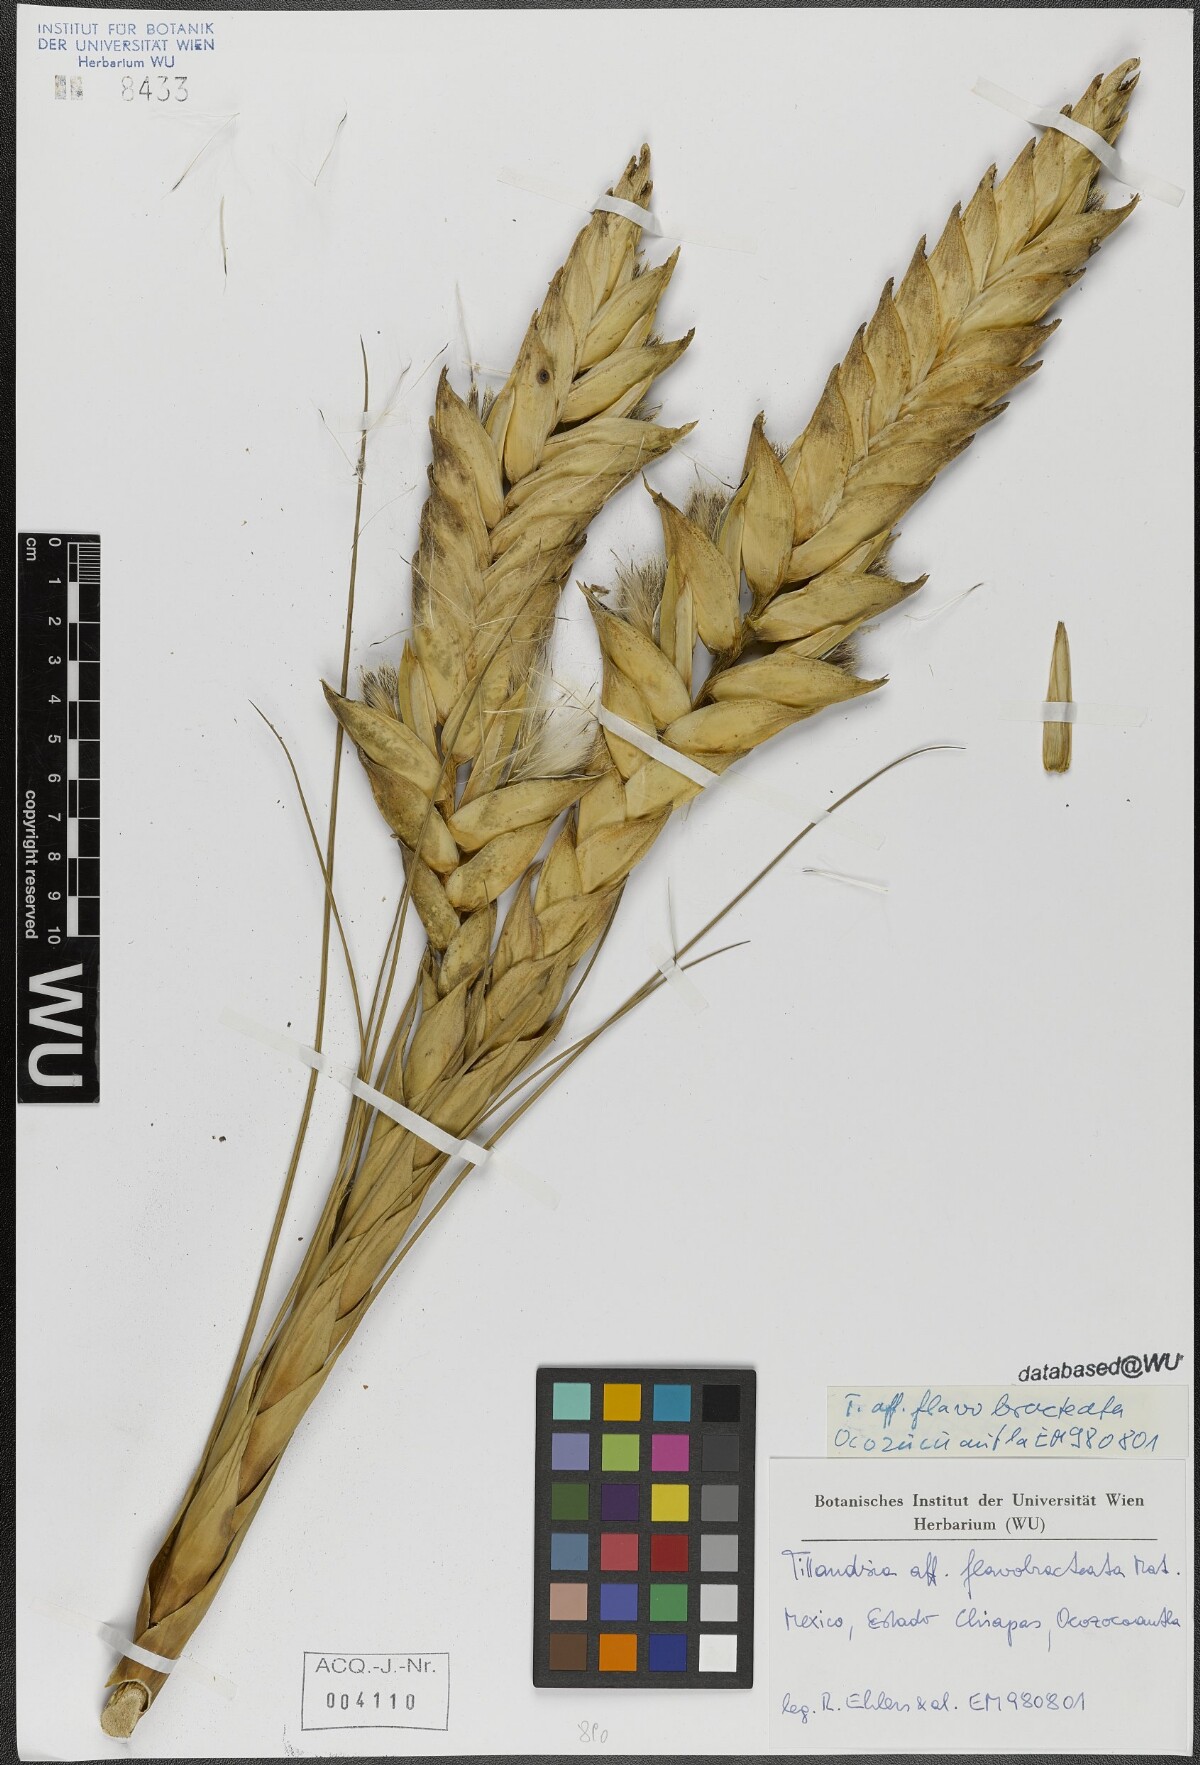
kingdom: Plantae
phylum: Tracheophyta
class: Liliopsida
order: Poales
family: Bromeliaceae
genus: Tillandsia
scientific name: Tillandsia flavobracteata
